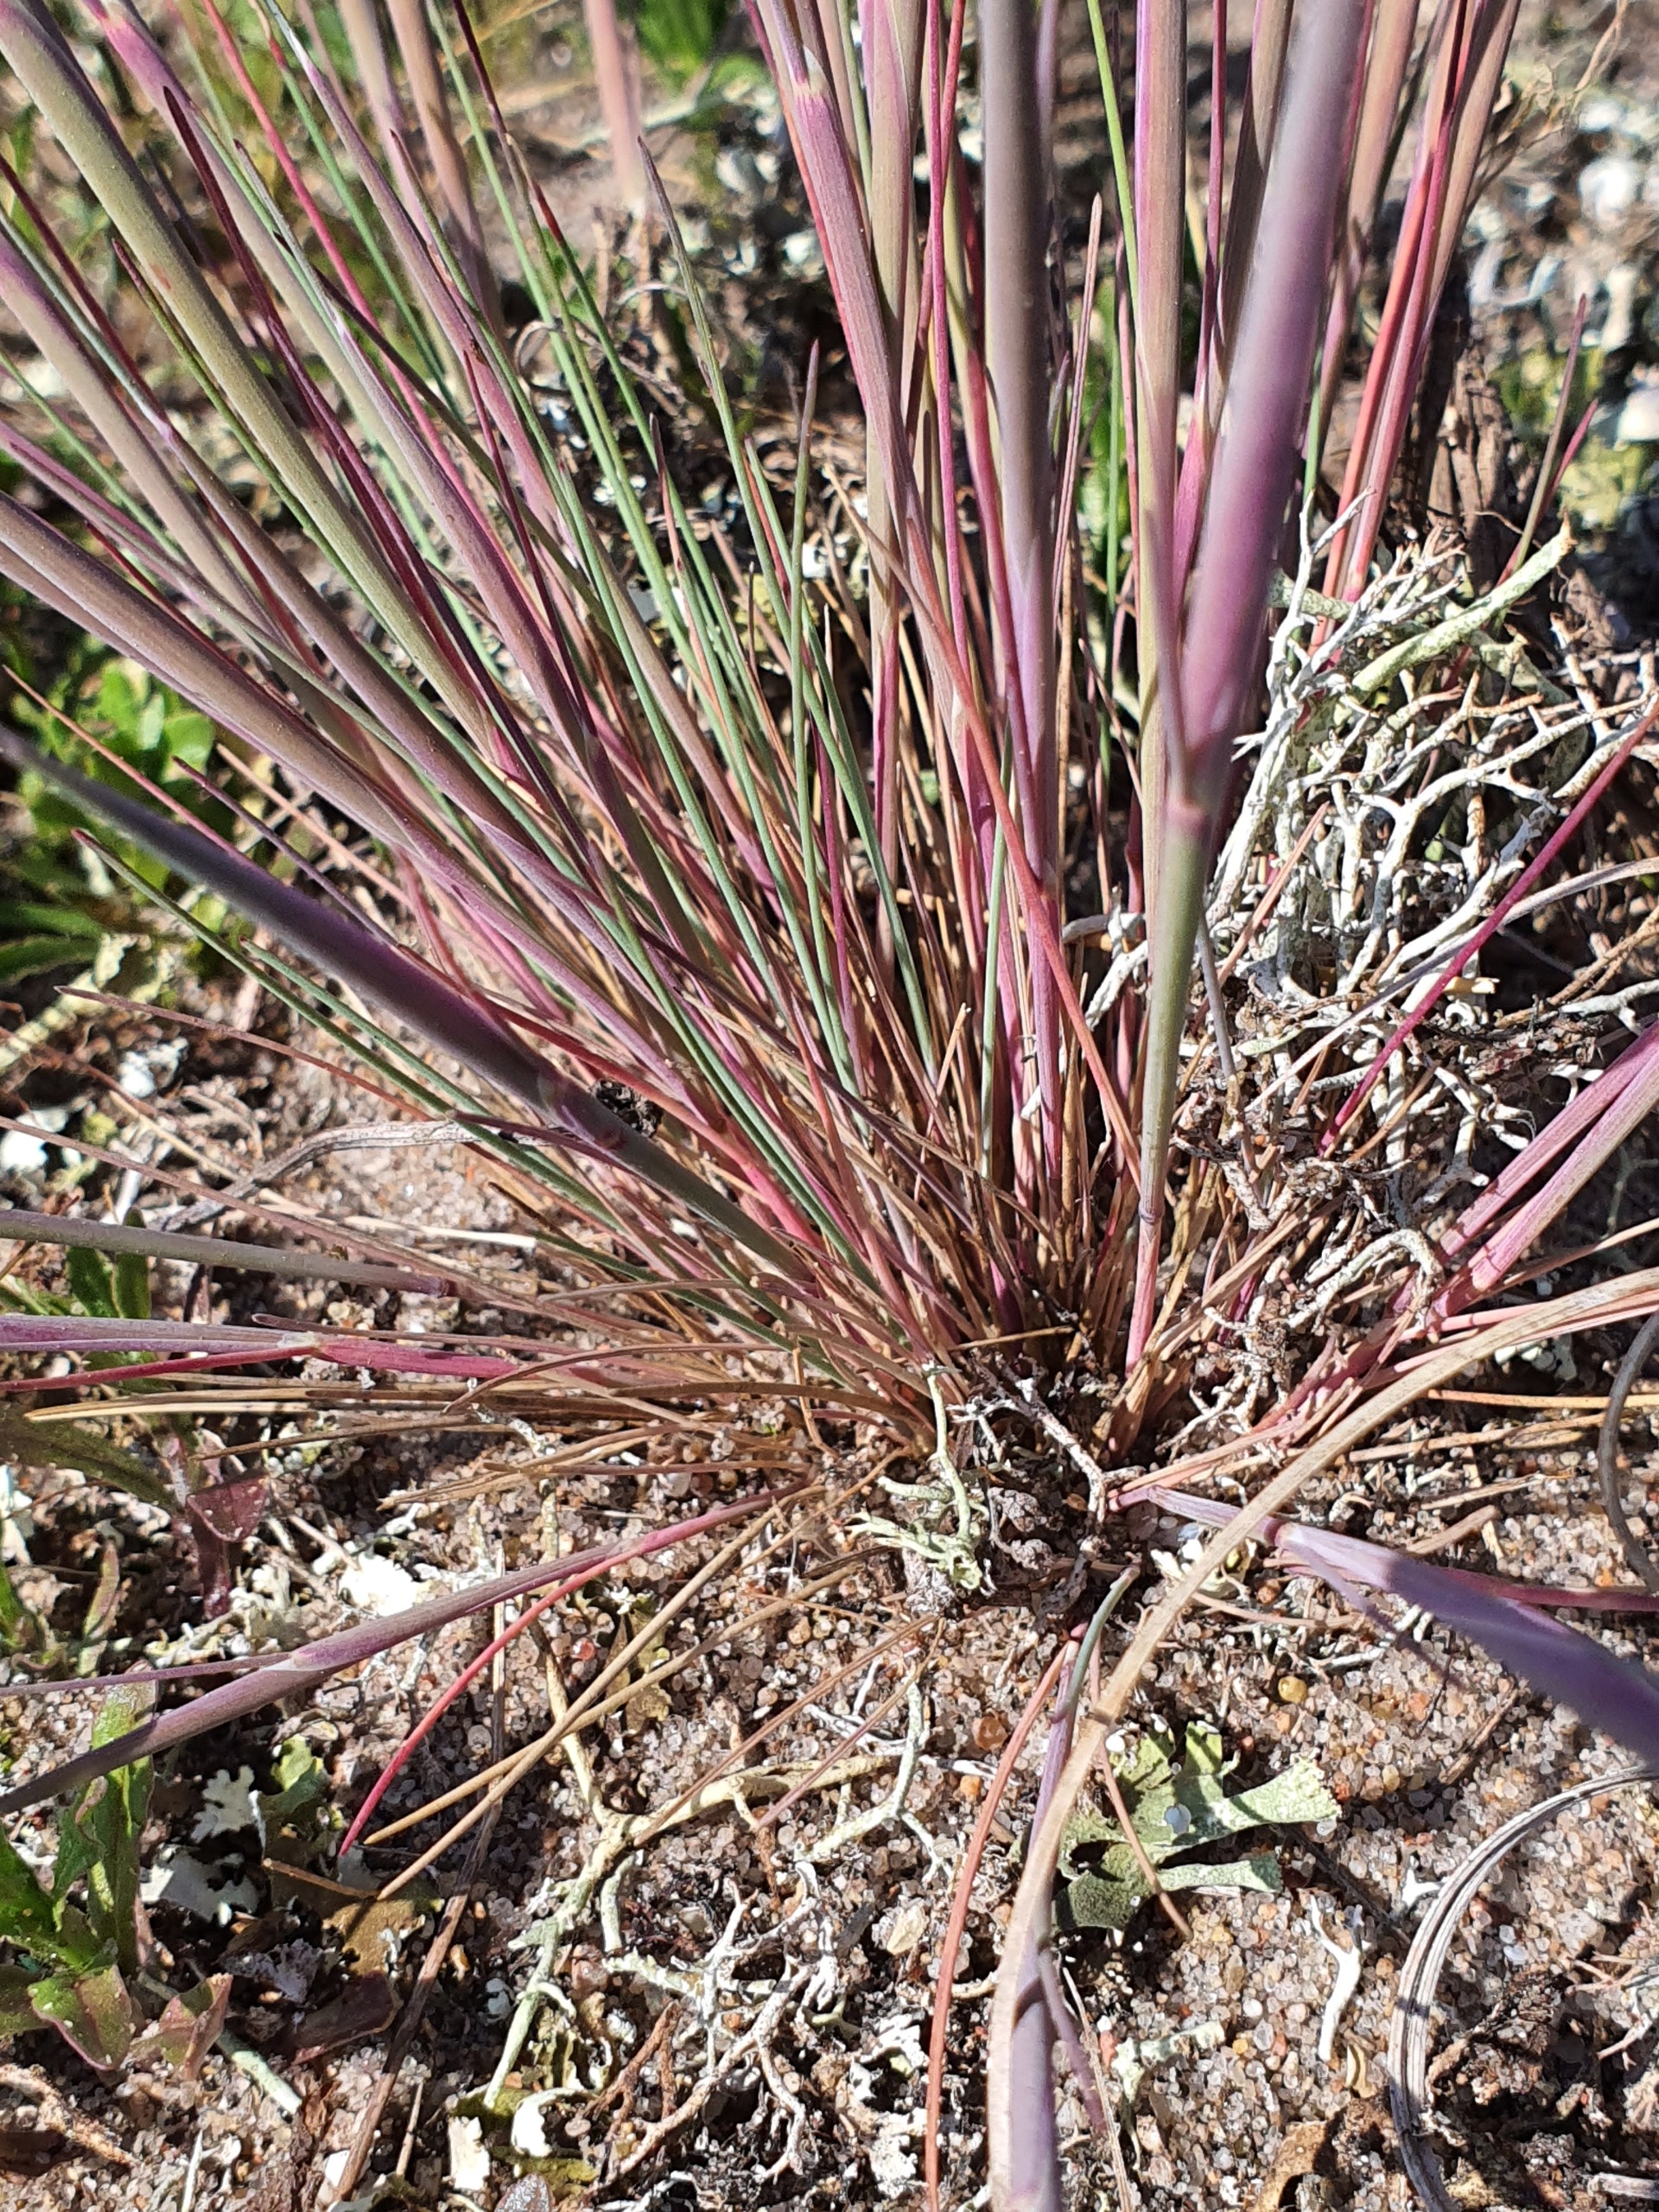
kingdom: Plantae
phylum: Tracheophyta
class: Liliopsida
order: Poales
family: Poaceae
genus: Corynephorus
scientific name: Corynephorus canescens
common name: Sandskæg
